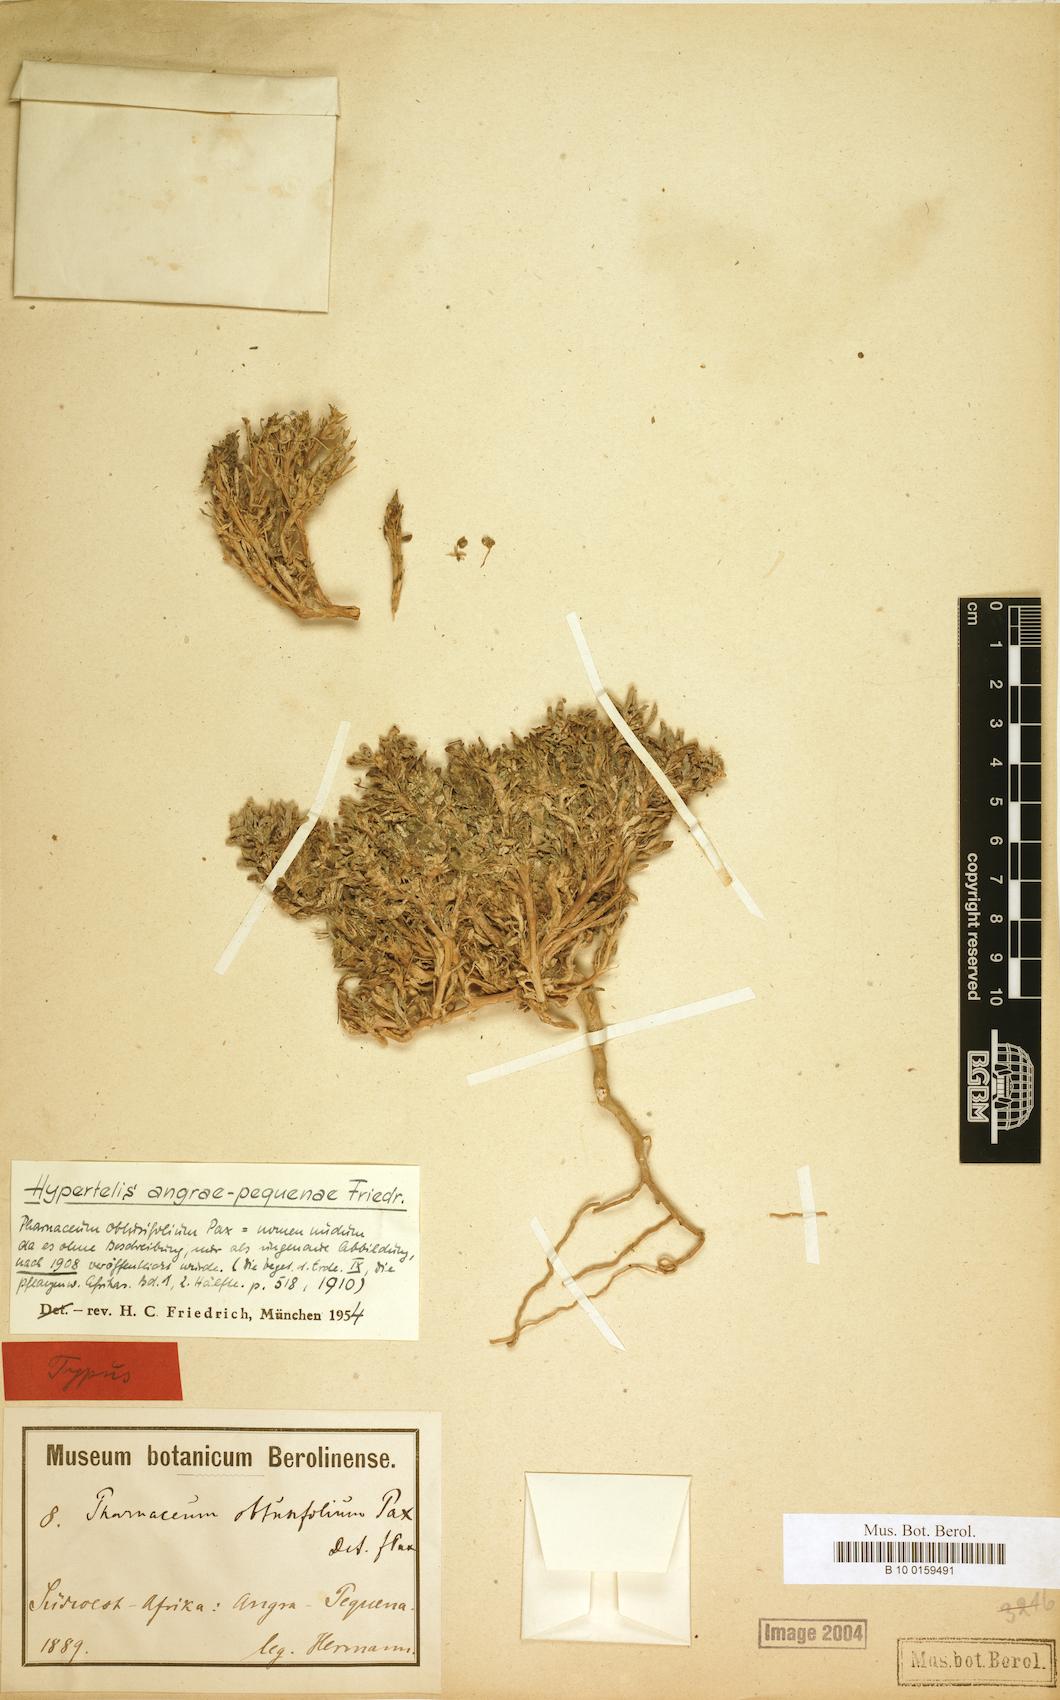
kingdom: Plantae
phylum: Tracheophyta
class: Magnoliopsida
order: Caryophyllales
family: Kewaceae
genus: Kewa
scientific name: Kewa angrae-pequenae
